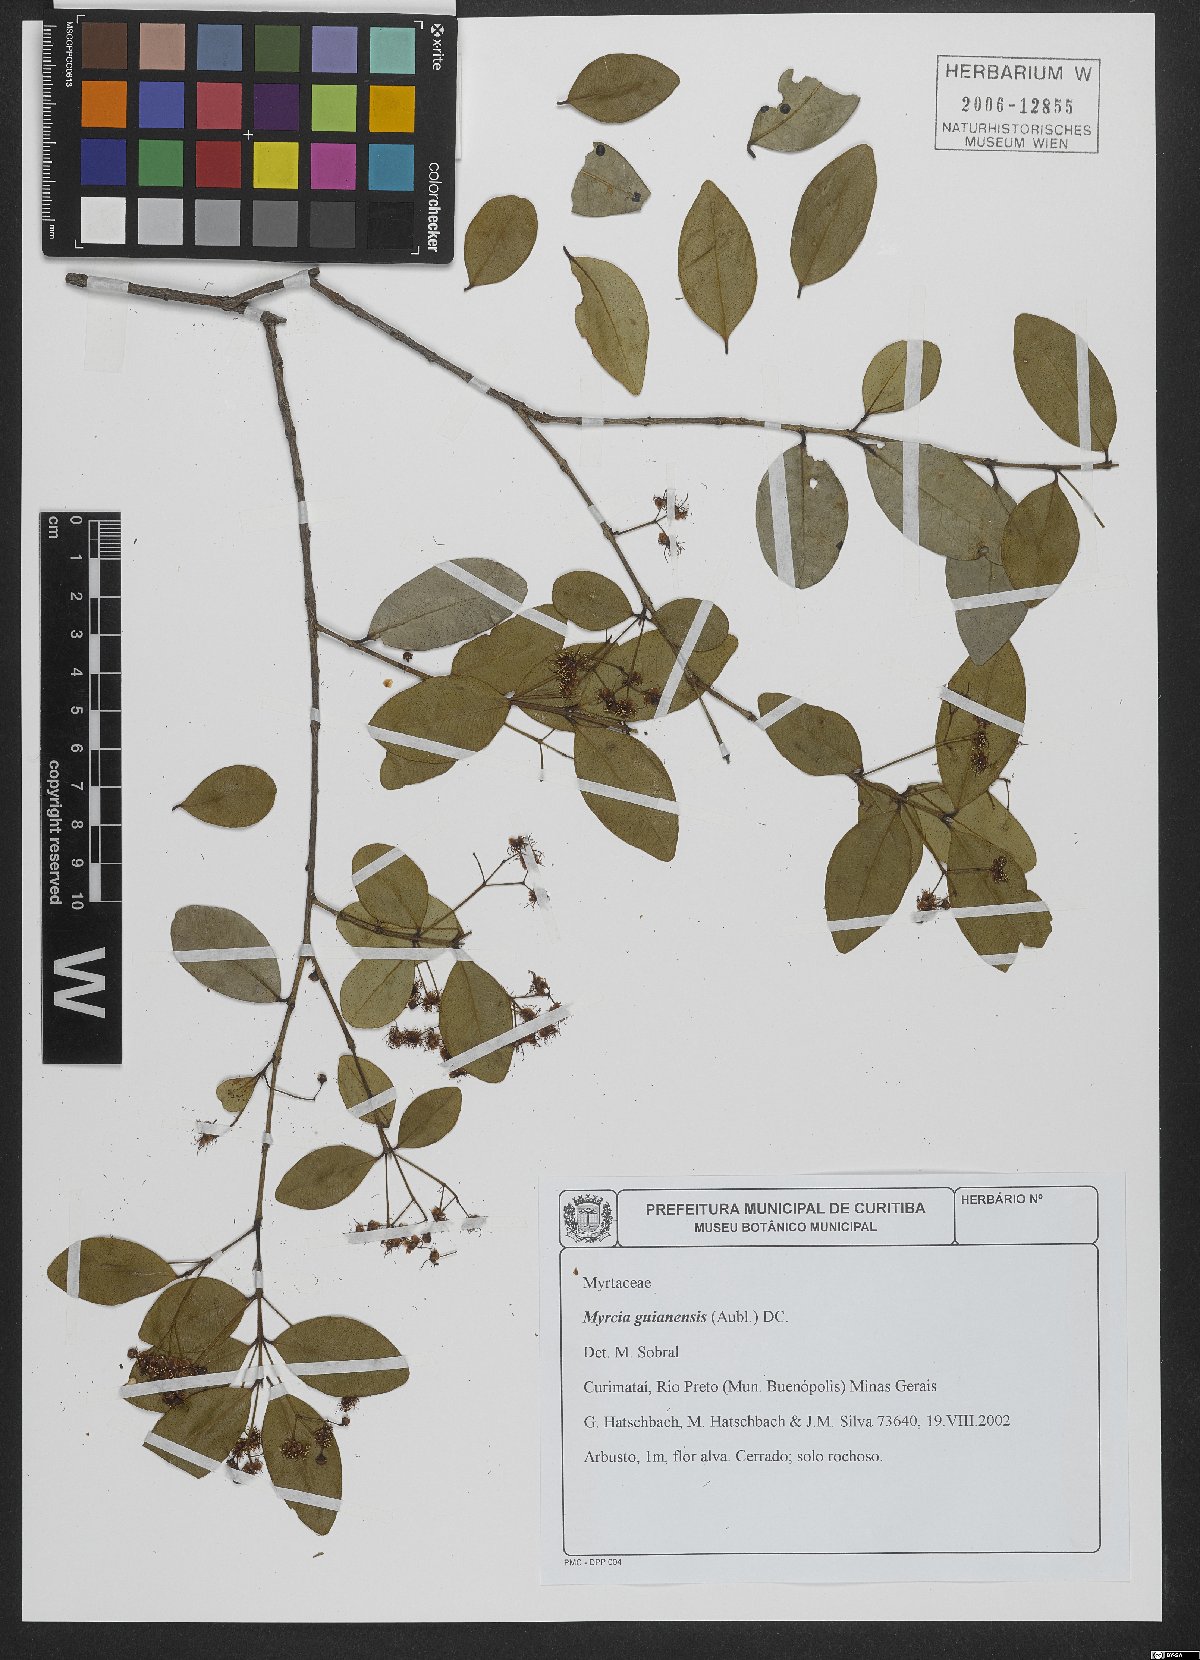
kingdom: Plantae
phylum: Tracheophyta
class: Magnoliopsida
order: Myrtales
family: Myrtaceae
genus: Myrcia
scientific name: Myrcia guianensis
